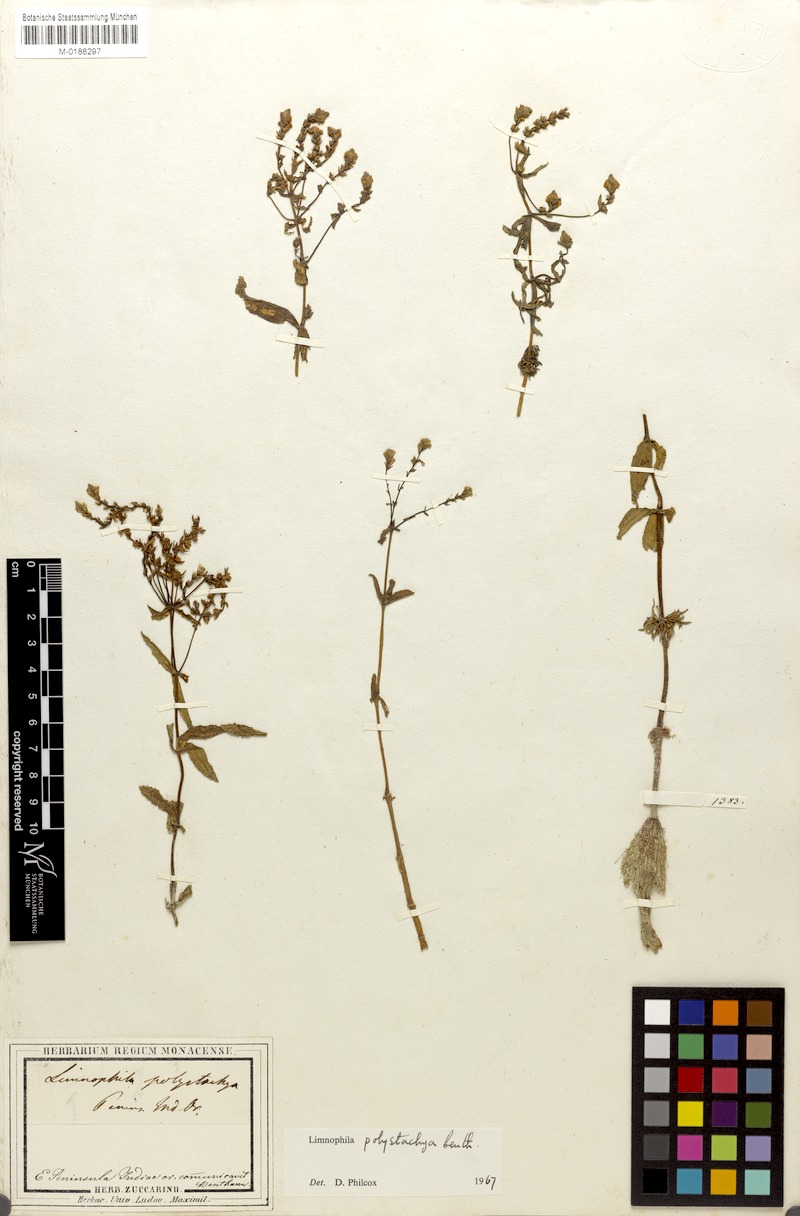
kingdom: Plantae
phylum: Tracheophyta
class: Magnoliopsida
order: Lamiales
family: Plantaginaceae
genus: Limnophila
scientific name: Limnophila polystachya
